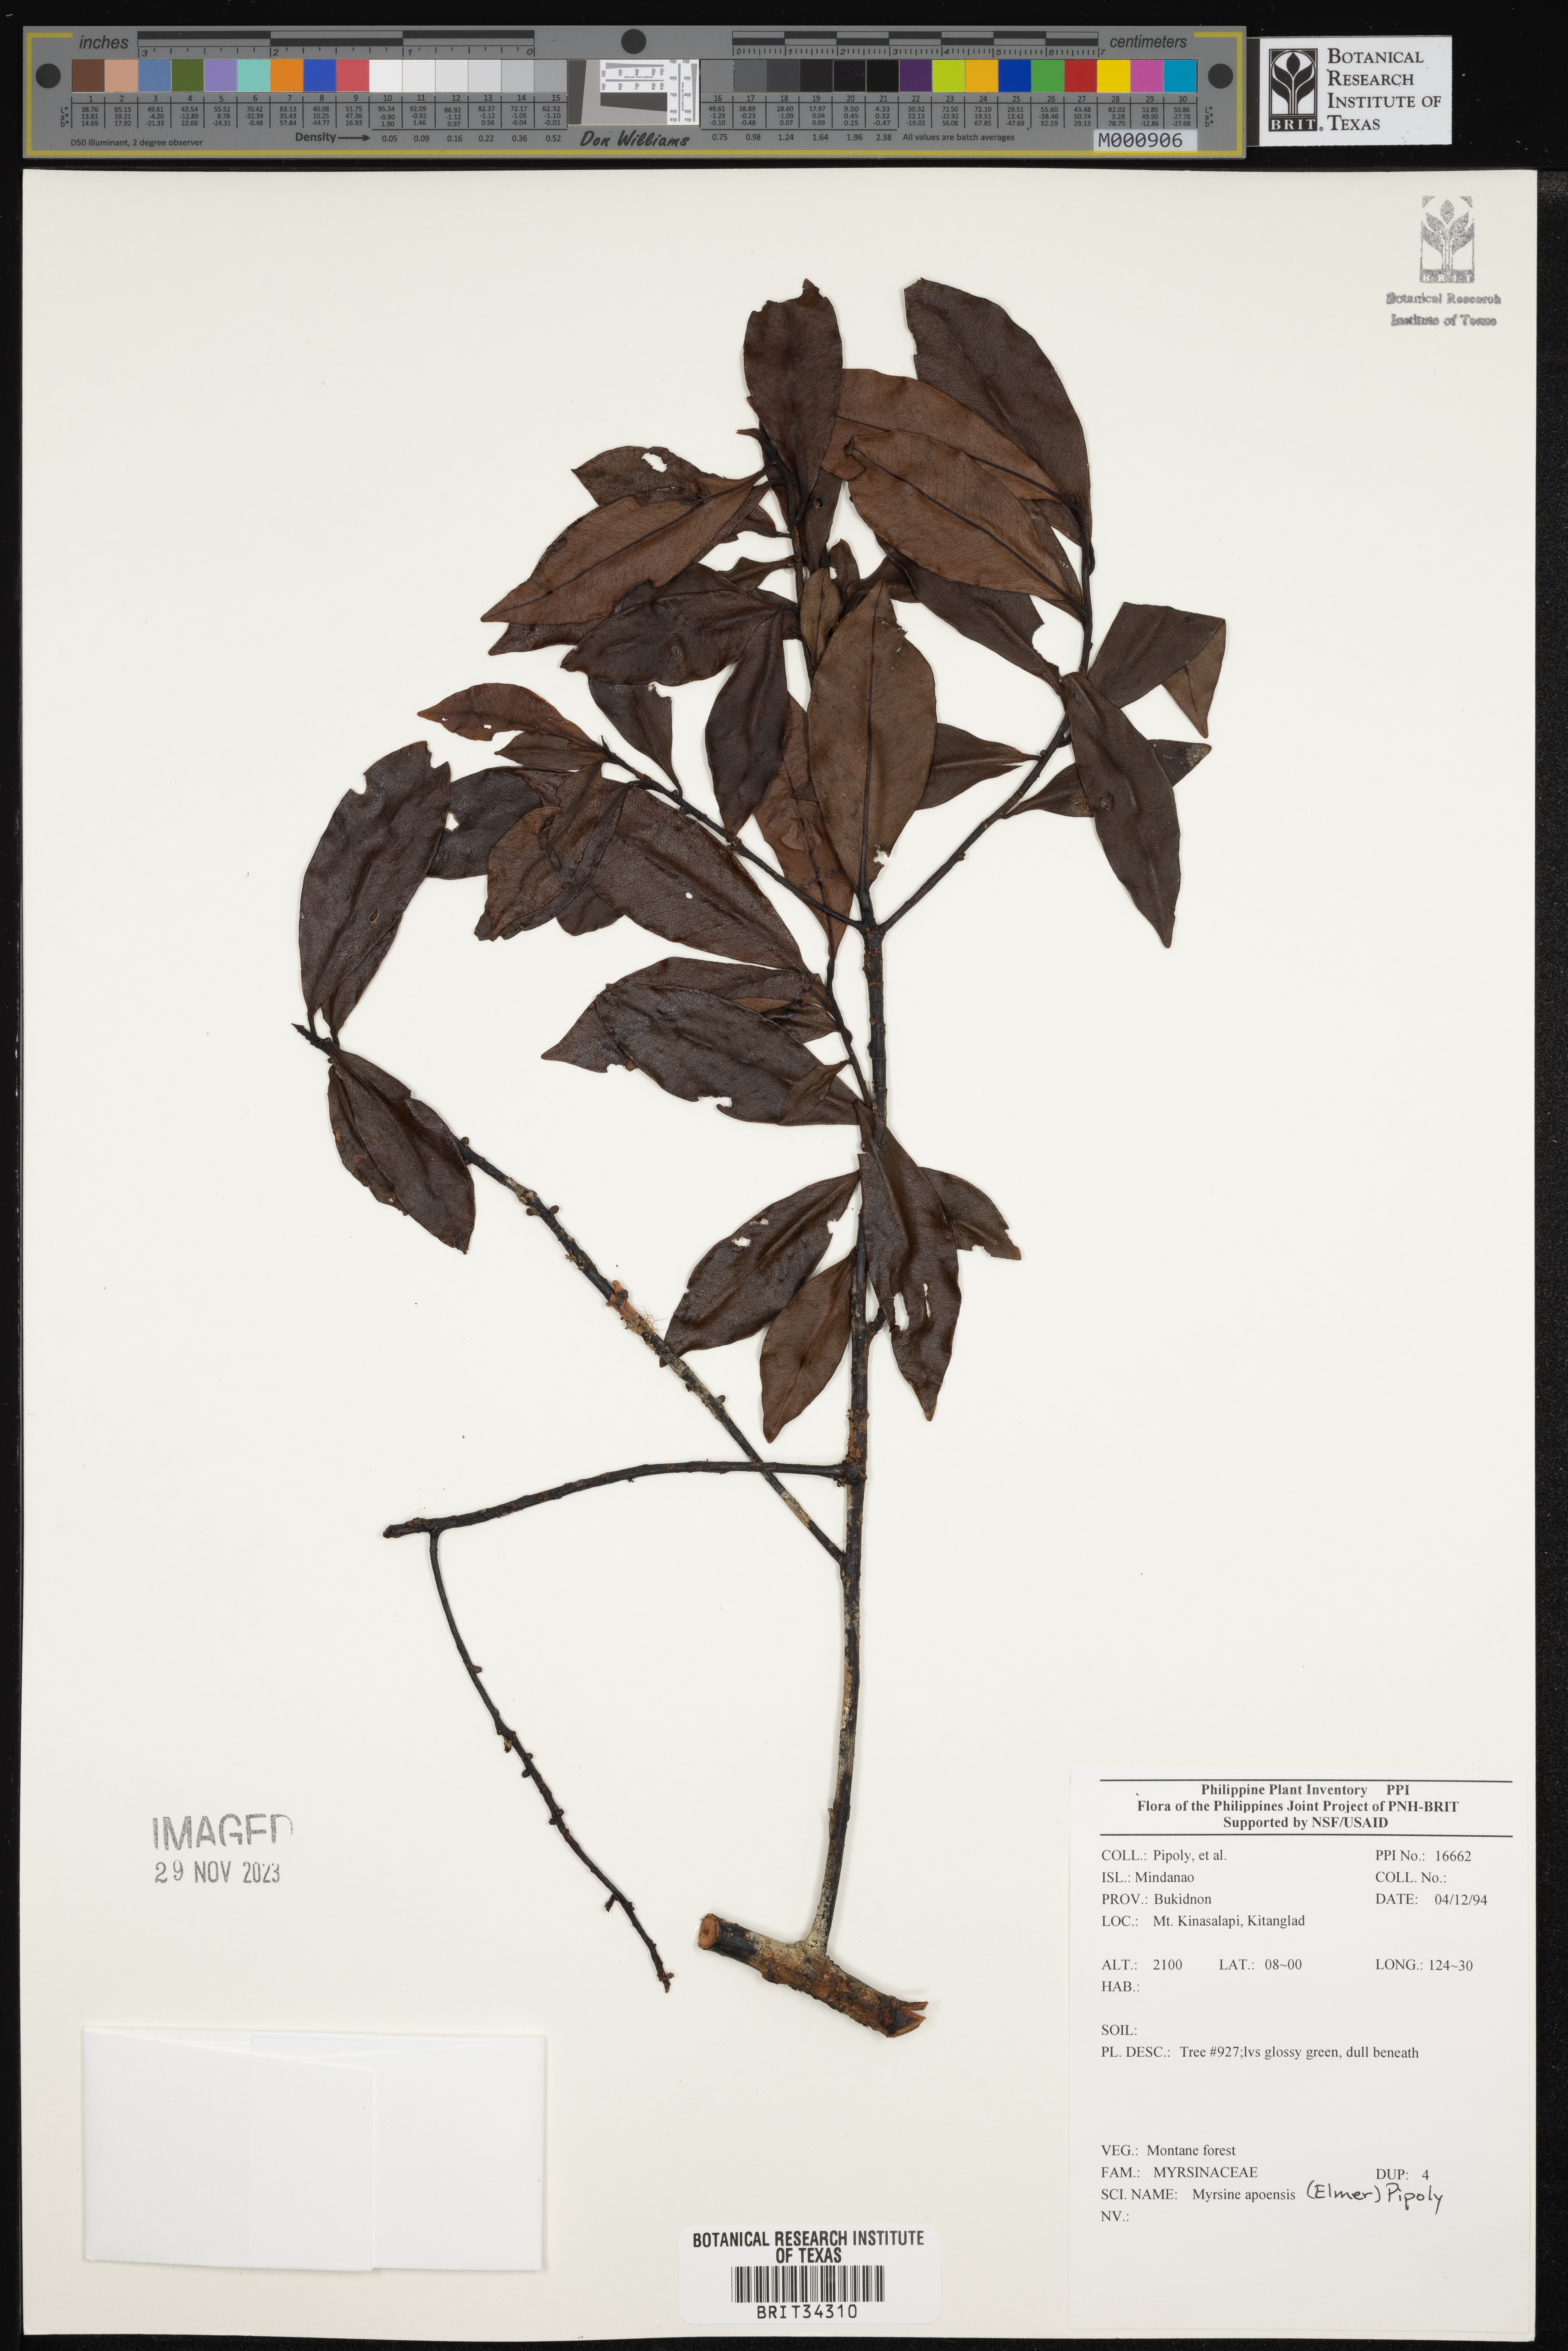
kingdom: Plantae
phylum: Tracheophyta
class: Magnoliopsida
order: Ericales
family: Primulaceae
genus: Myrsine
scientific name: Myrsine apoensis
